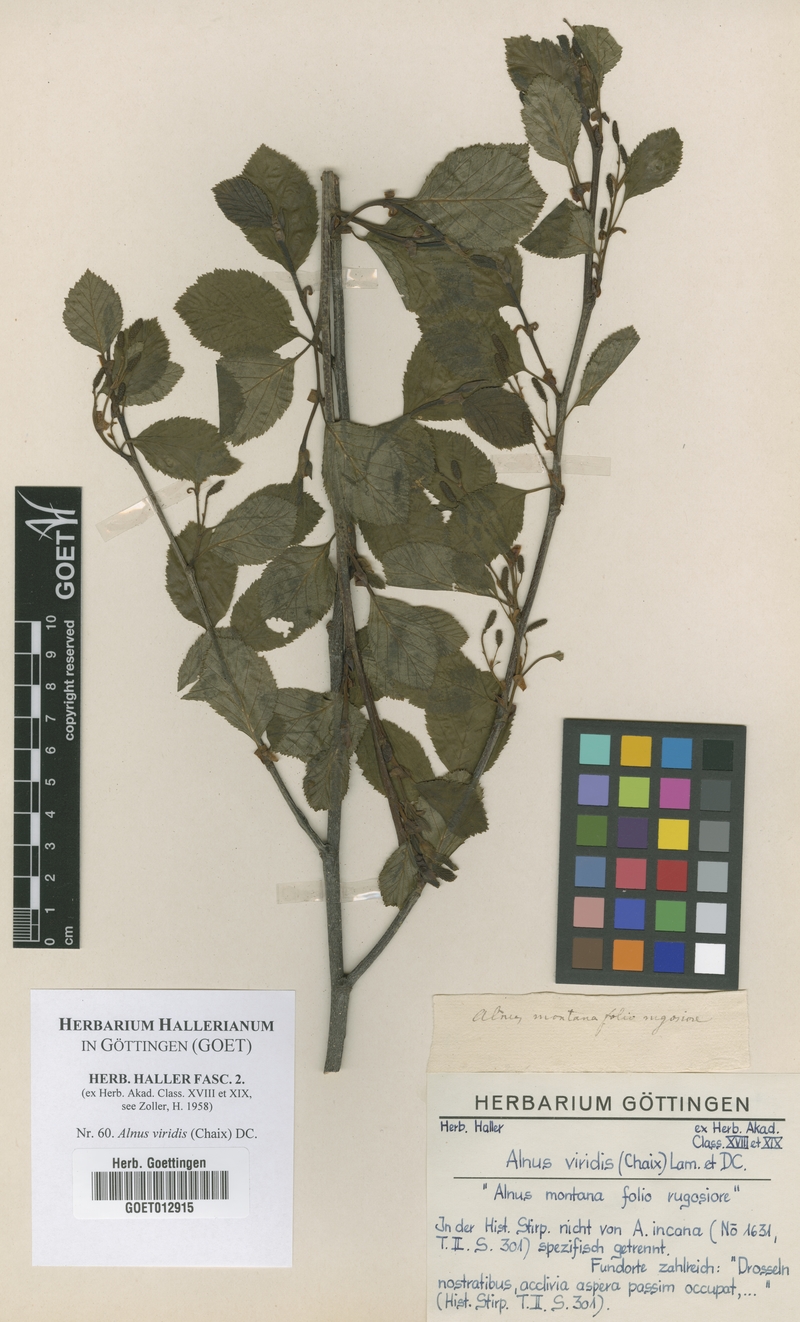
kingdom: Plantae
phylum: Tracheophyta
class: Magnoliopsida
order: Fagales
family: Betulaceae
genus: Alnus
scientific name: Alnus alnobetula
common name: Green alder
